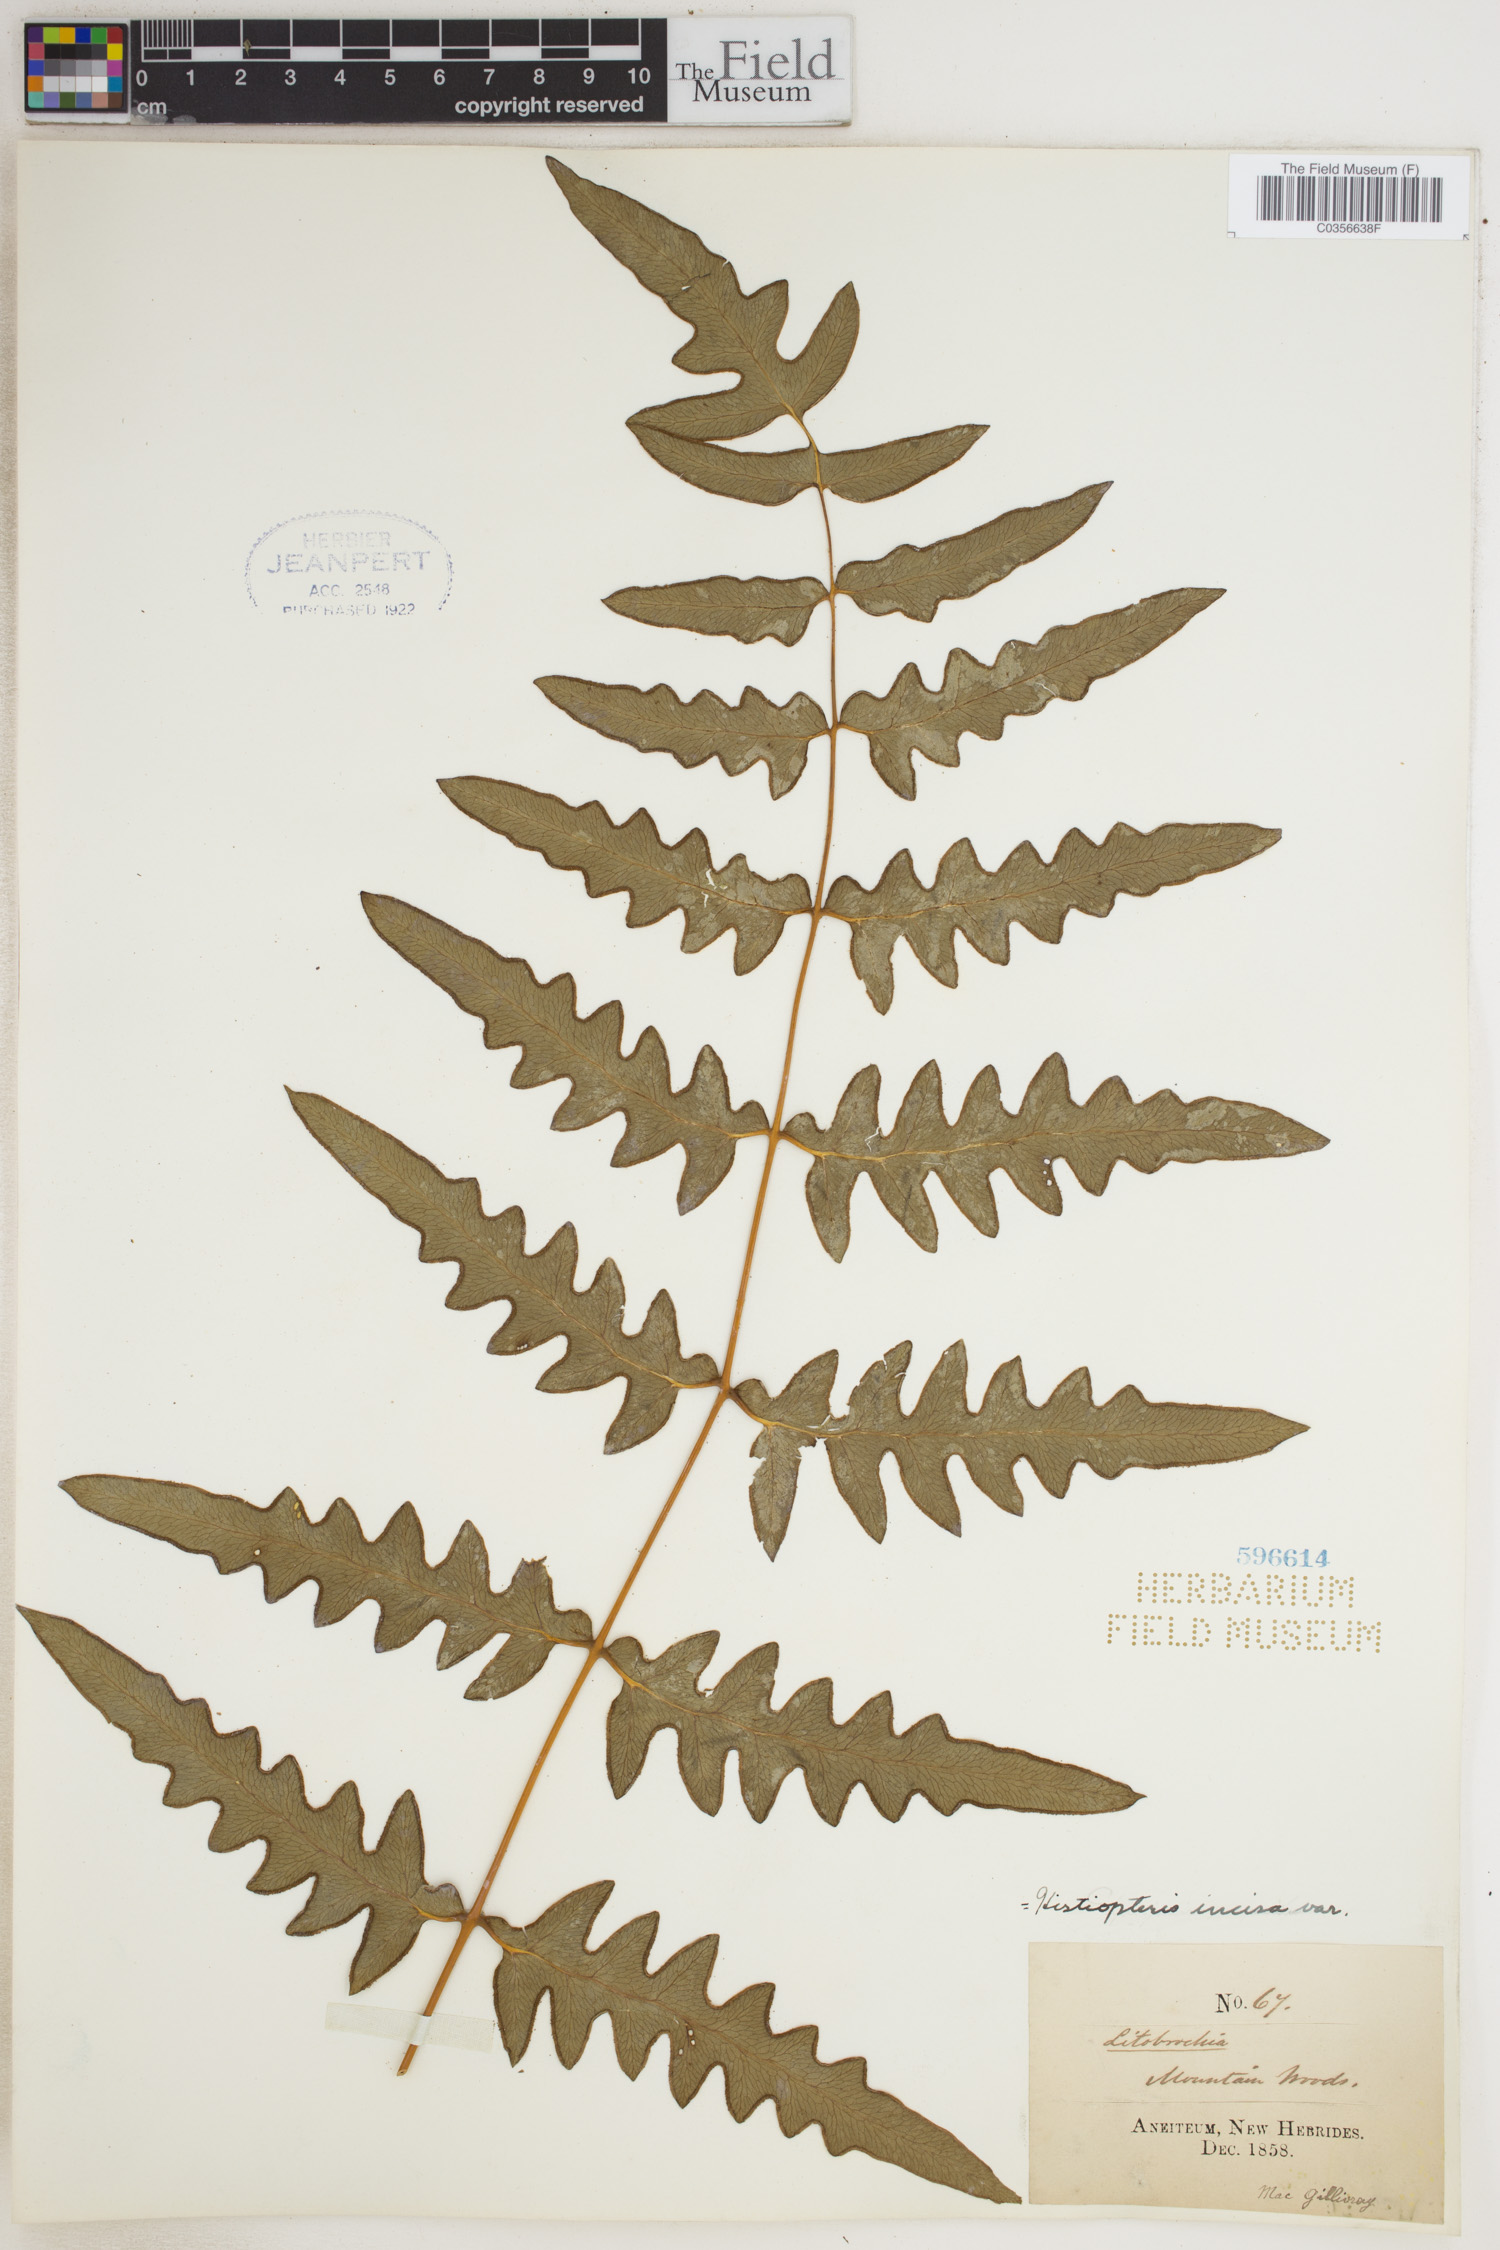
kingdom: Plantae
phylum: Tracheophyta
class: Polypodiopsida
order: Polypodiales
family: Dennstaedtiaceae
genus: Histiopteris
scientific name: Histiopteris incisa
